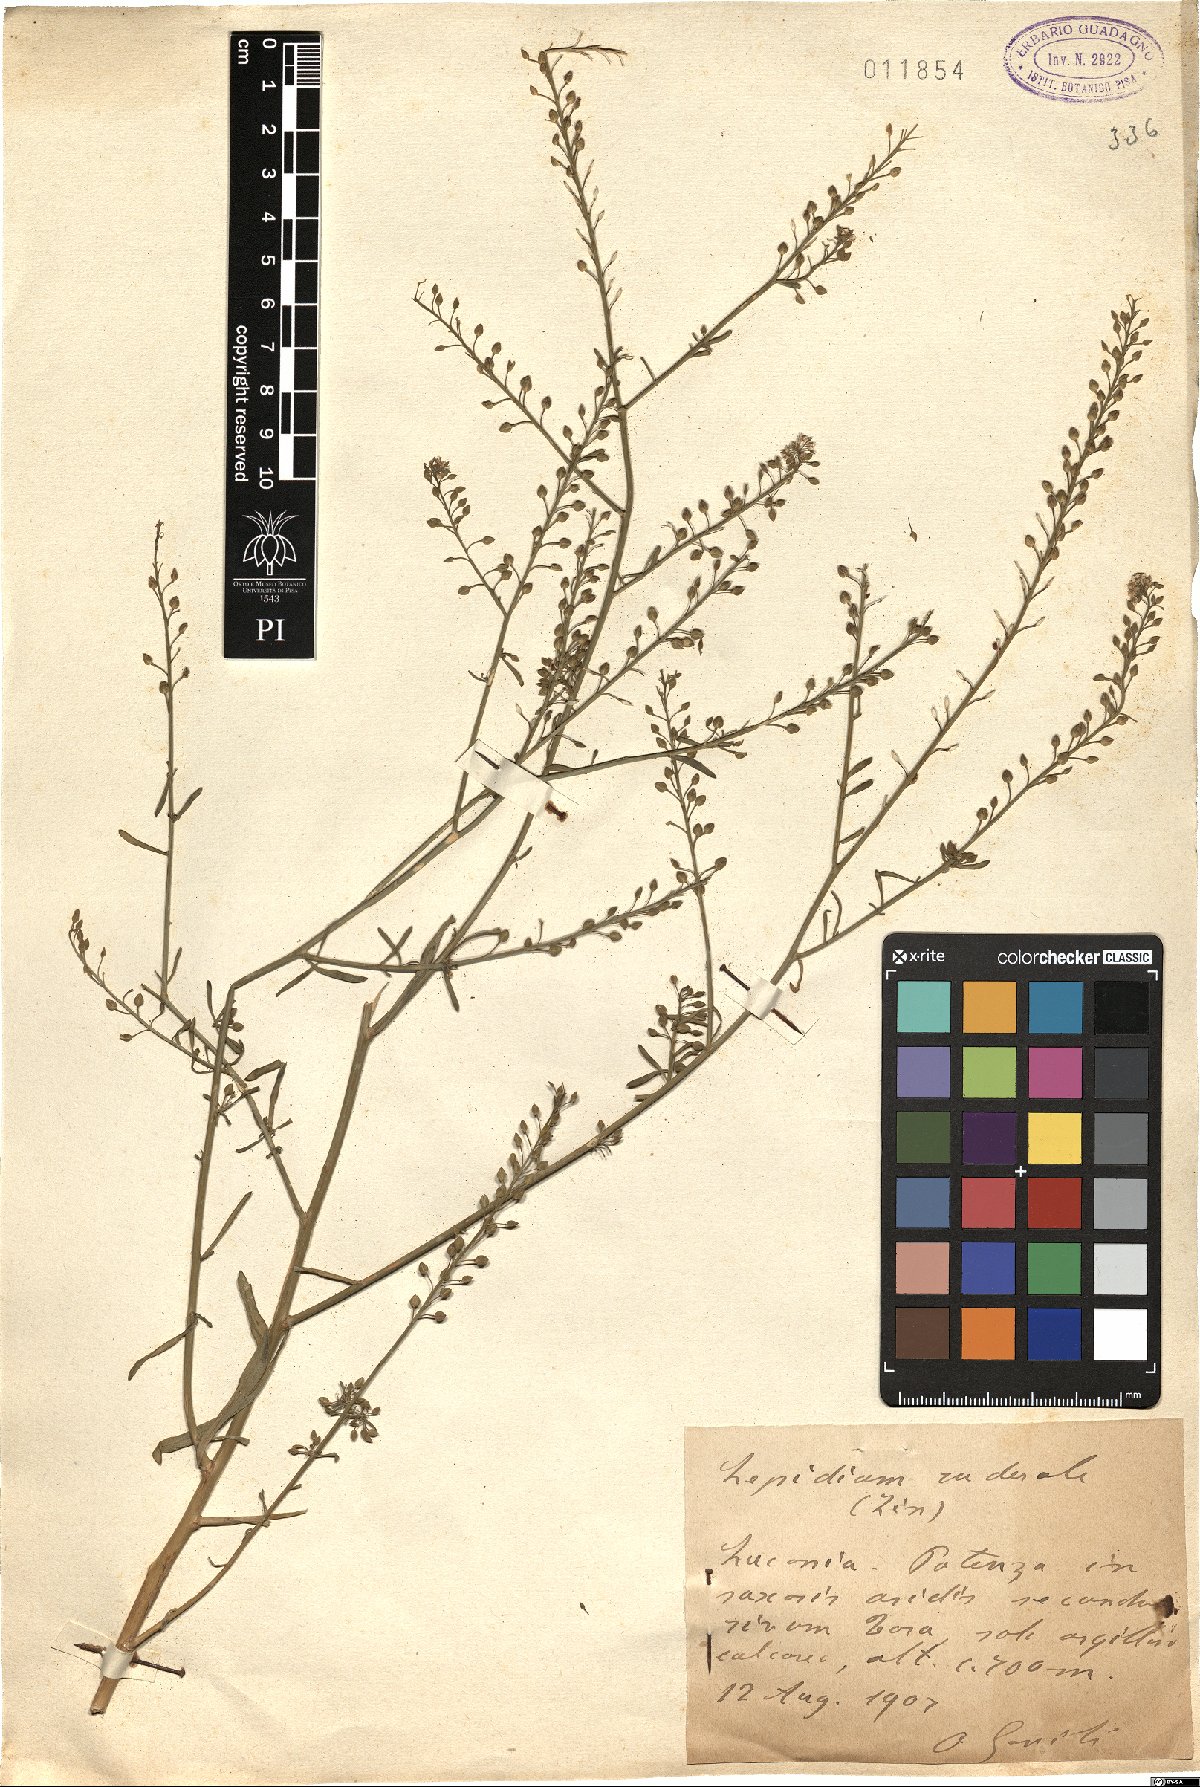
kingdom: Plantae
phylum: Tracheophyta
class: Magnoliopsida
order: Brassicales
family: Brassicaceae
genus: Lepidium
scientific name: Lepidium ruderale
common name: Narrow-leaved pepperwort
